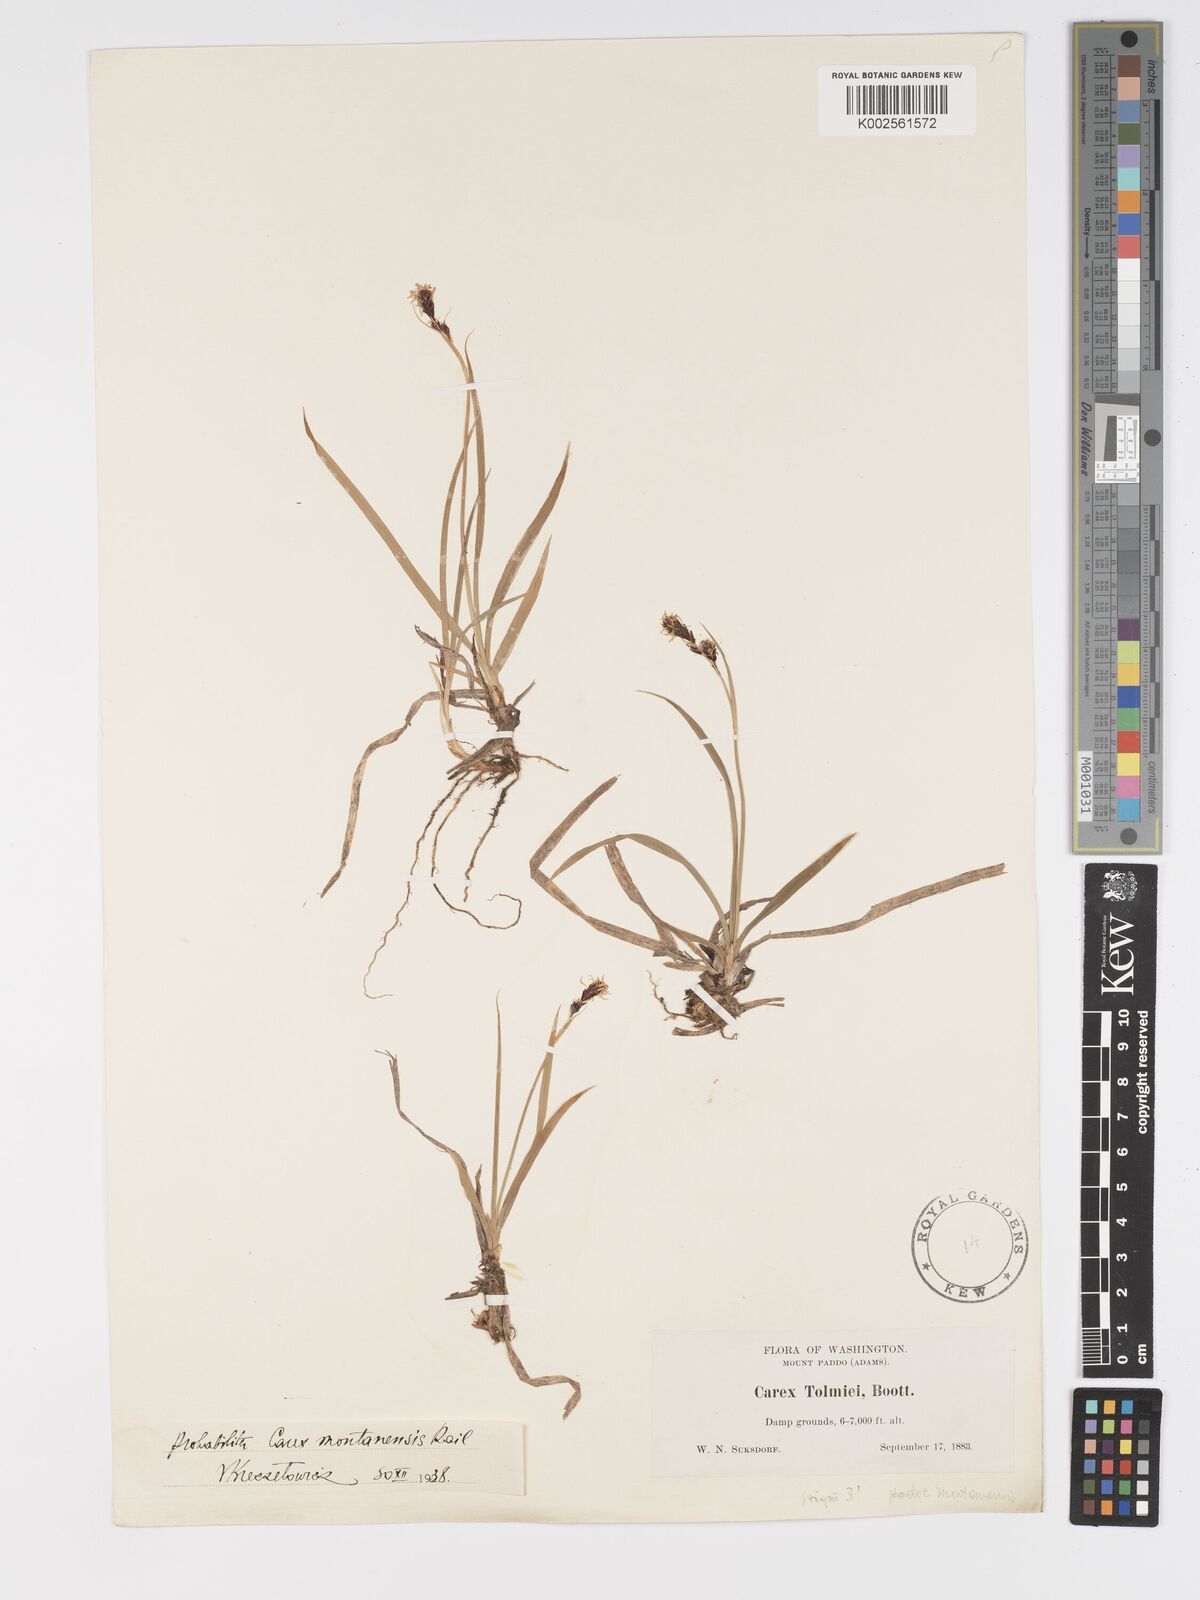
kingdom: Plantae
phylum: Tracheophyta
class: Liliopsida
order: Poales
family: Cyperaceae
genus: Carex
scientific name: Carex podocarpa
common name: Alpine sedge
